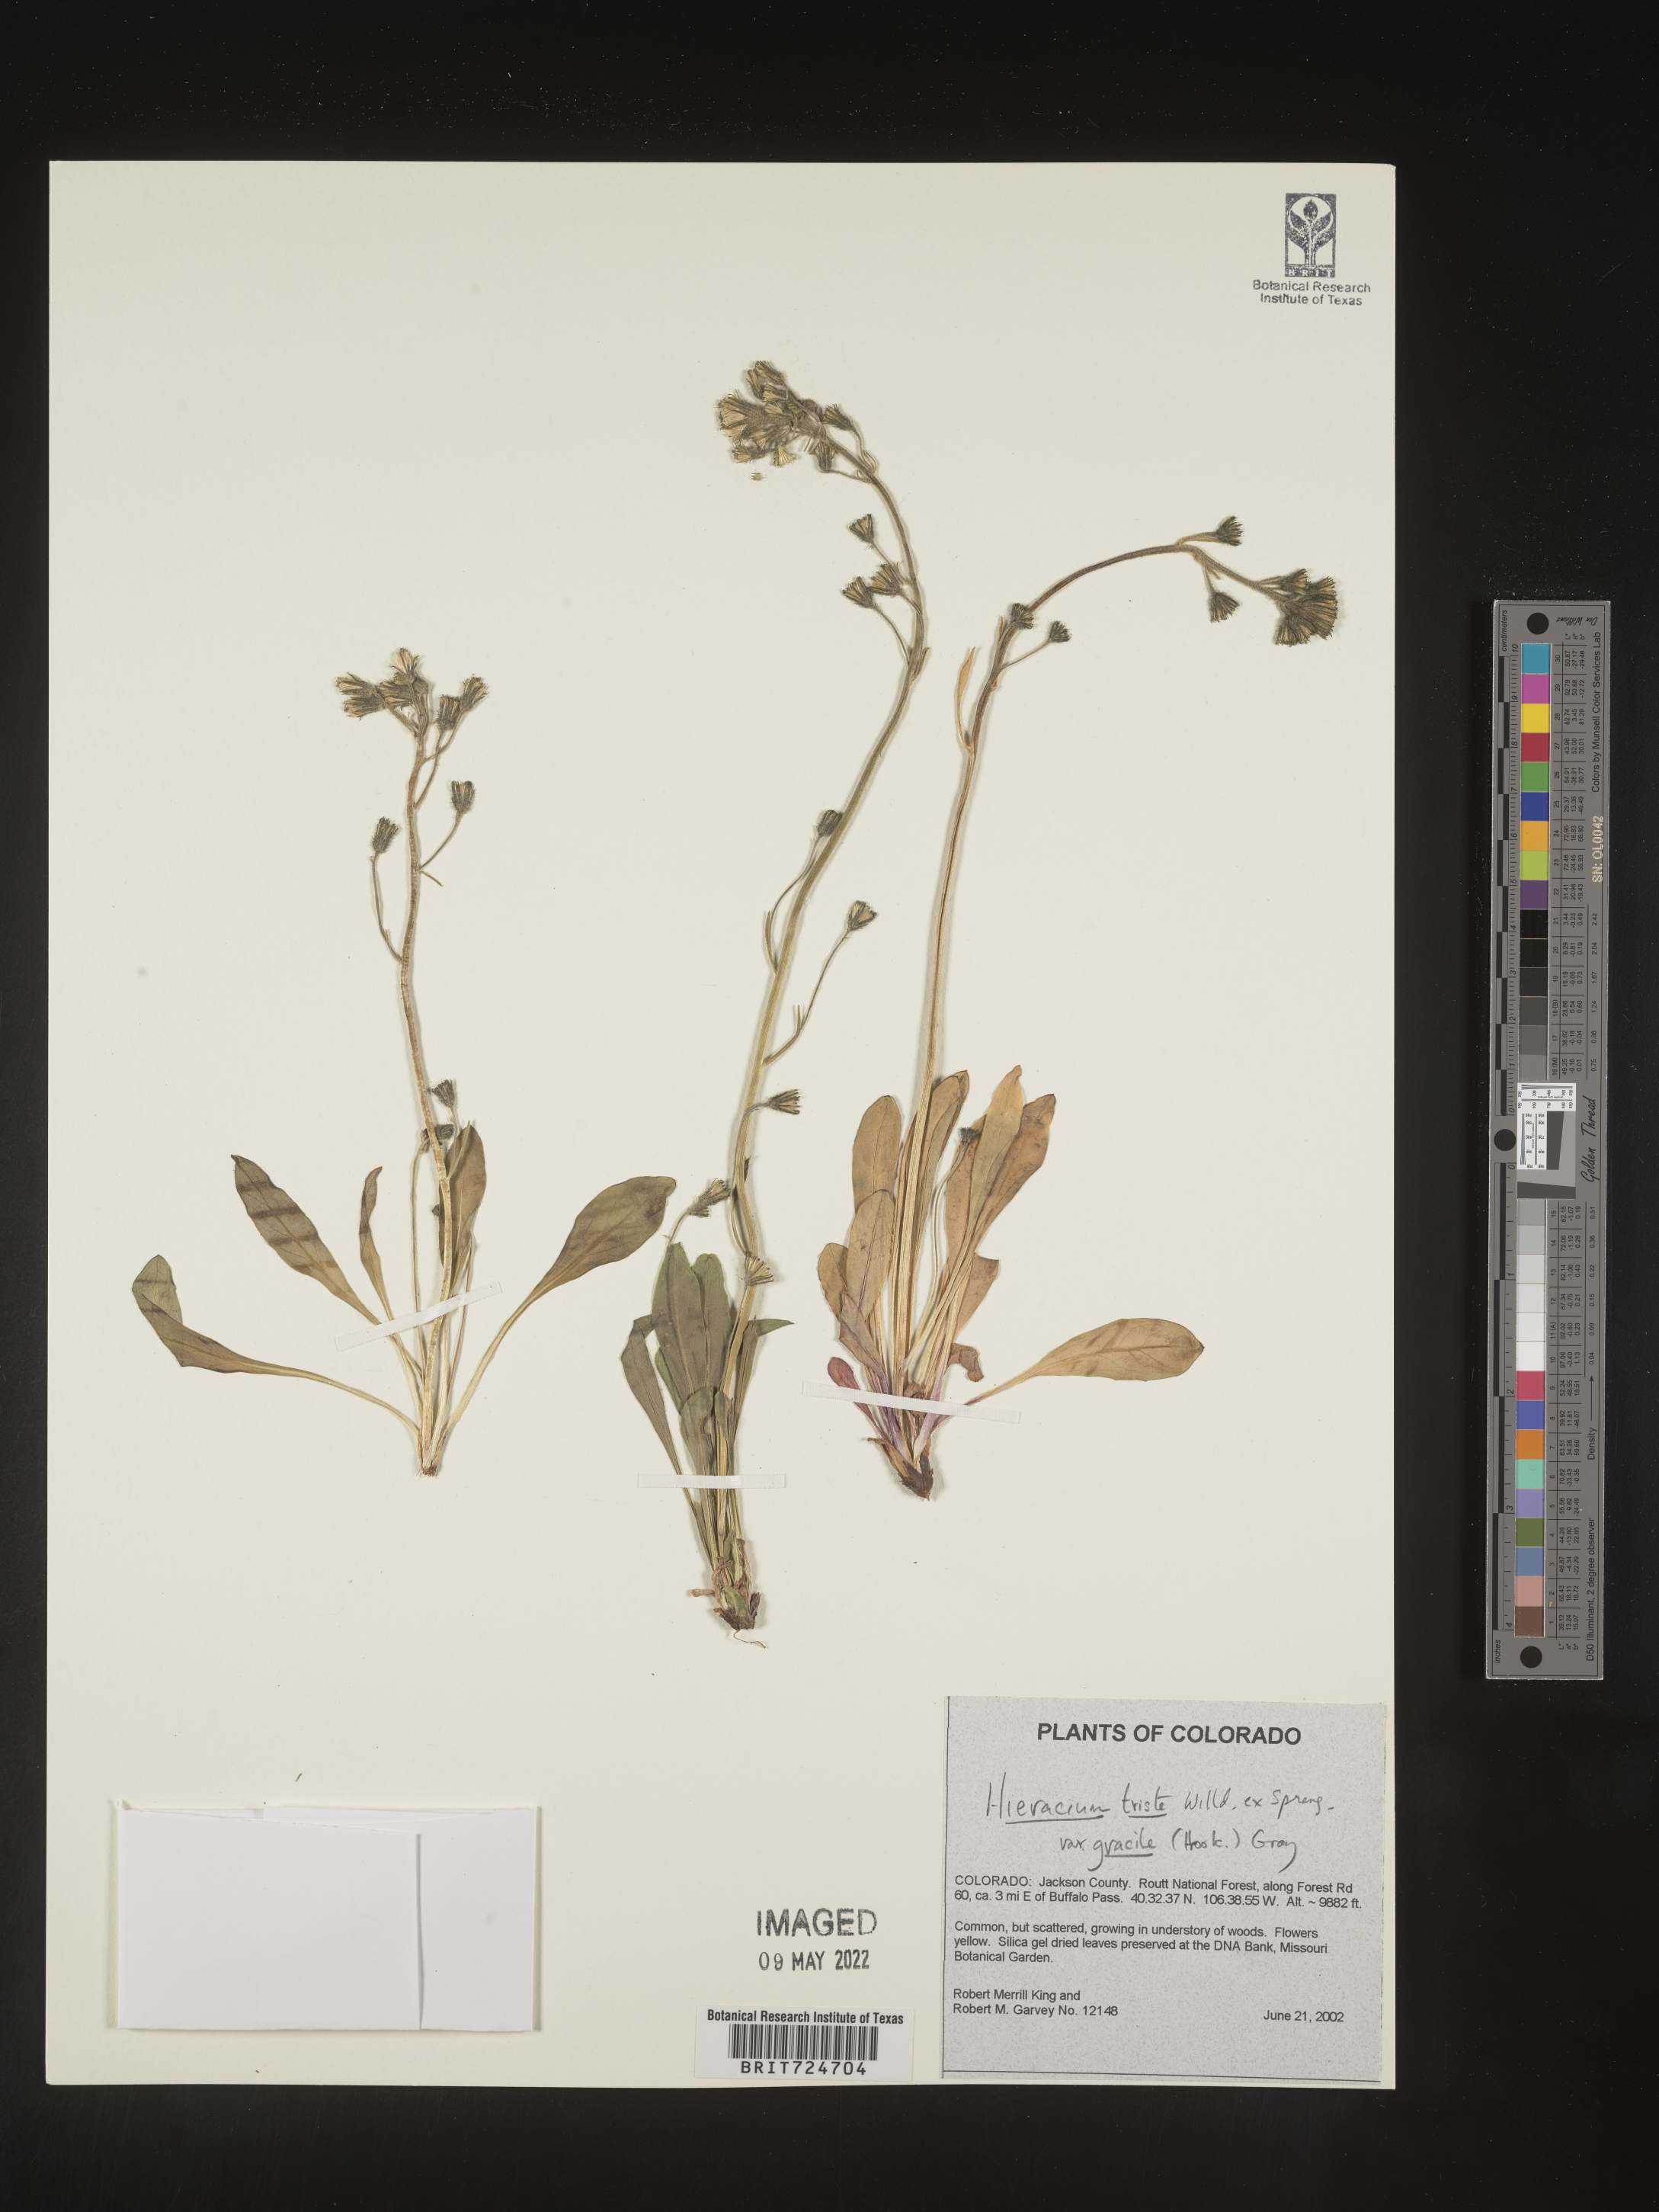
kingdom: Plantae
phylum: Tracheophyta
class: Magnoliopsida
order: Asterales
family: Asteraceae
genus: Hieracium
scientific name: Hieracium
